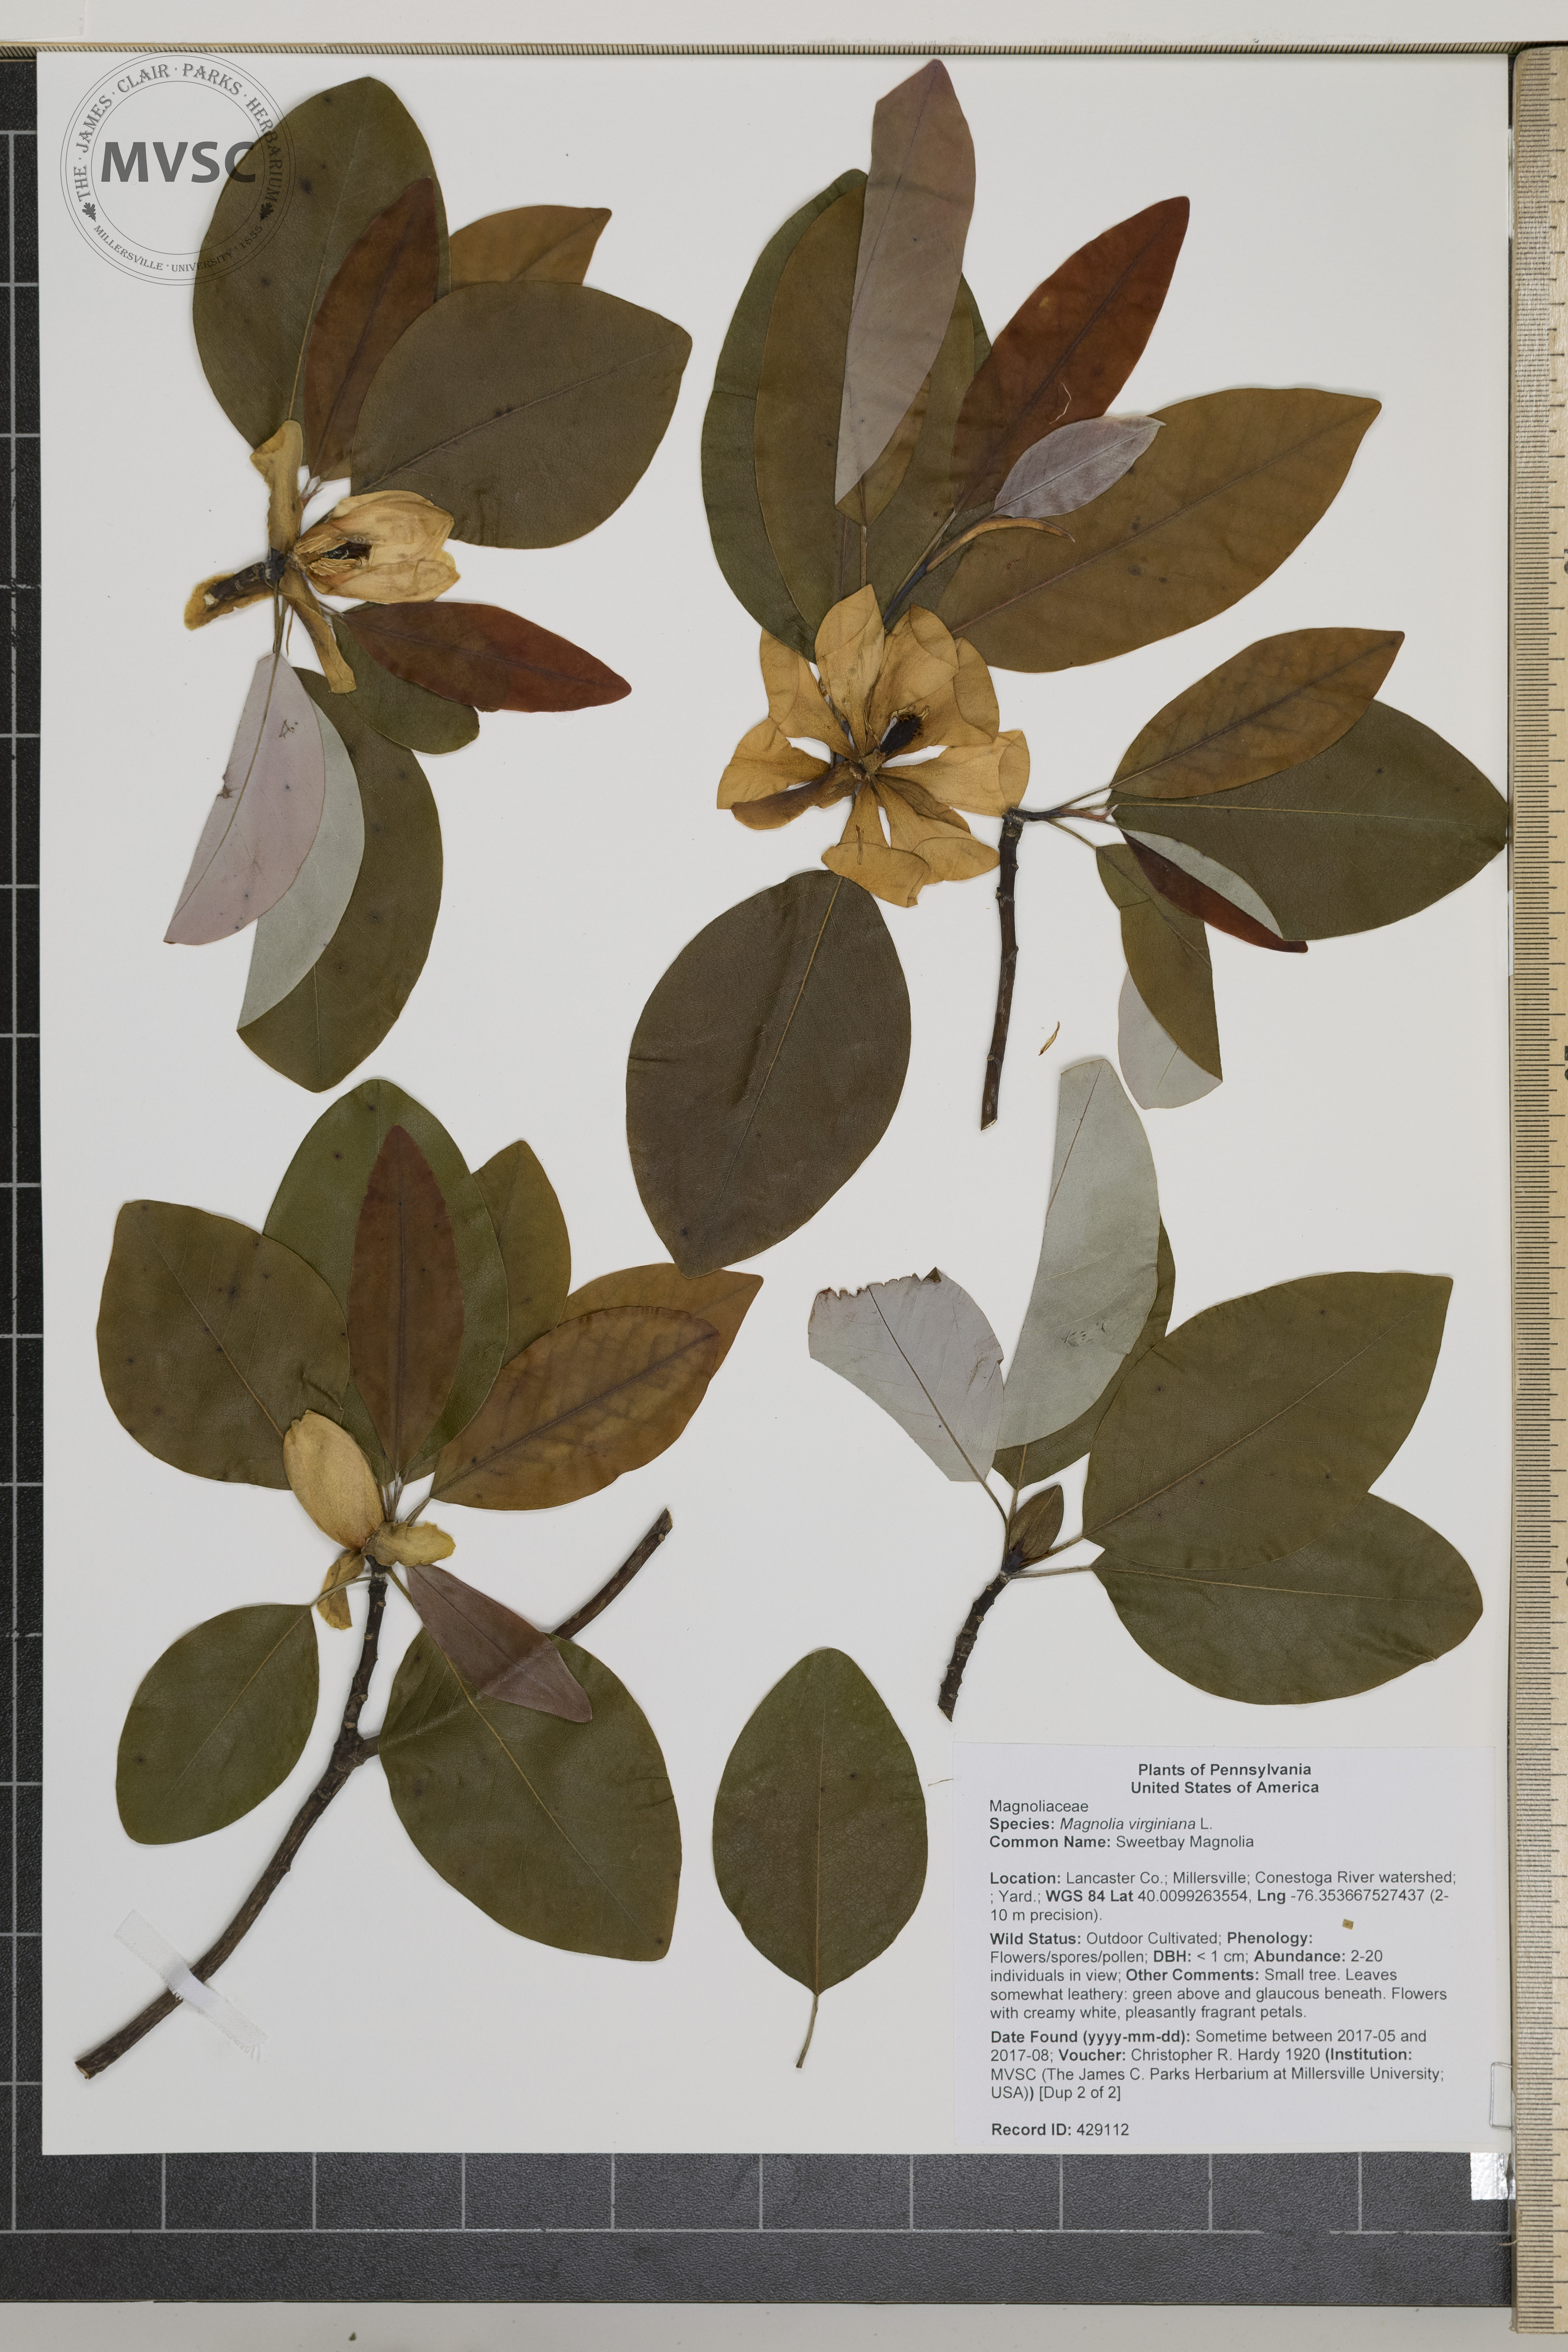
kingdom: Plantae
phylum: Tracheophyta
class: Magnoliopsida
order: Magnoliales
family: Magnoliaceae
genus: Magnolia
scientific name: Magnolia virginiana
